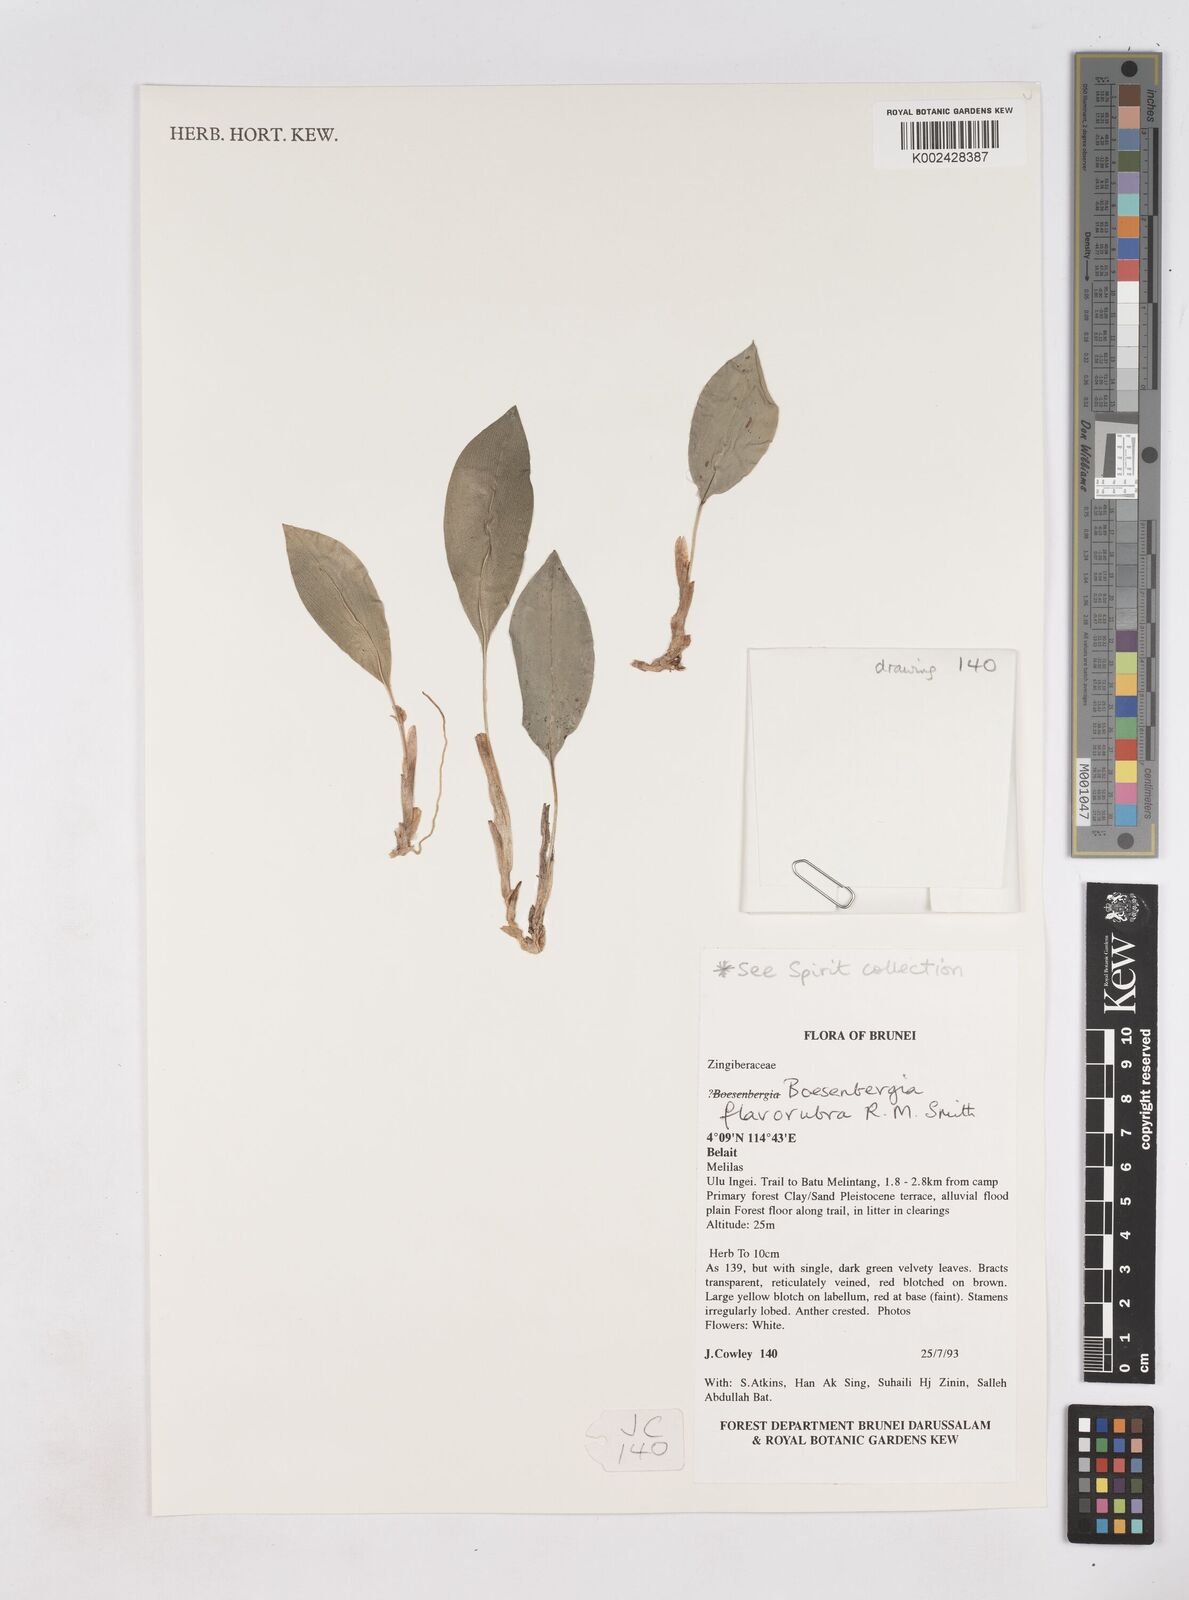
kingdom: Plantae
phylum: Tracheophyta
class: Liliopsida
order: Zingiberales
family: Zingiberaceae
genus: Boesenbergia
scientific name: Boesenbergia flavorubra
